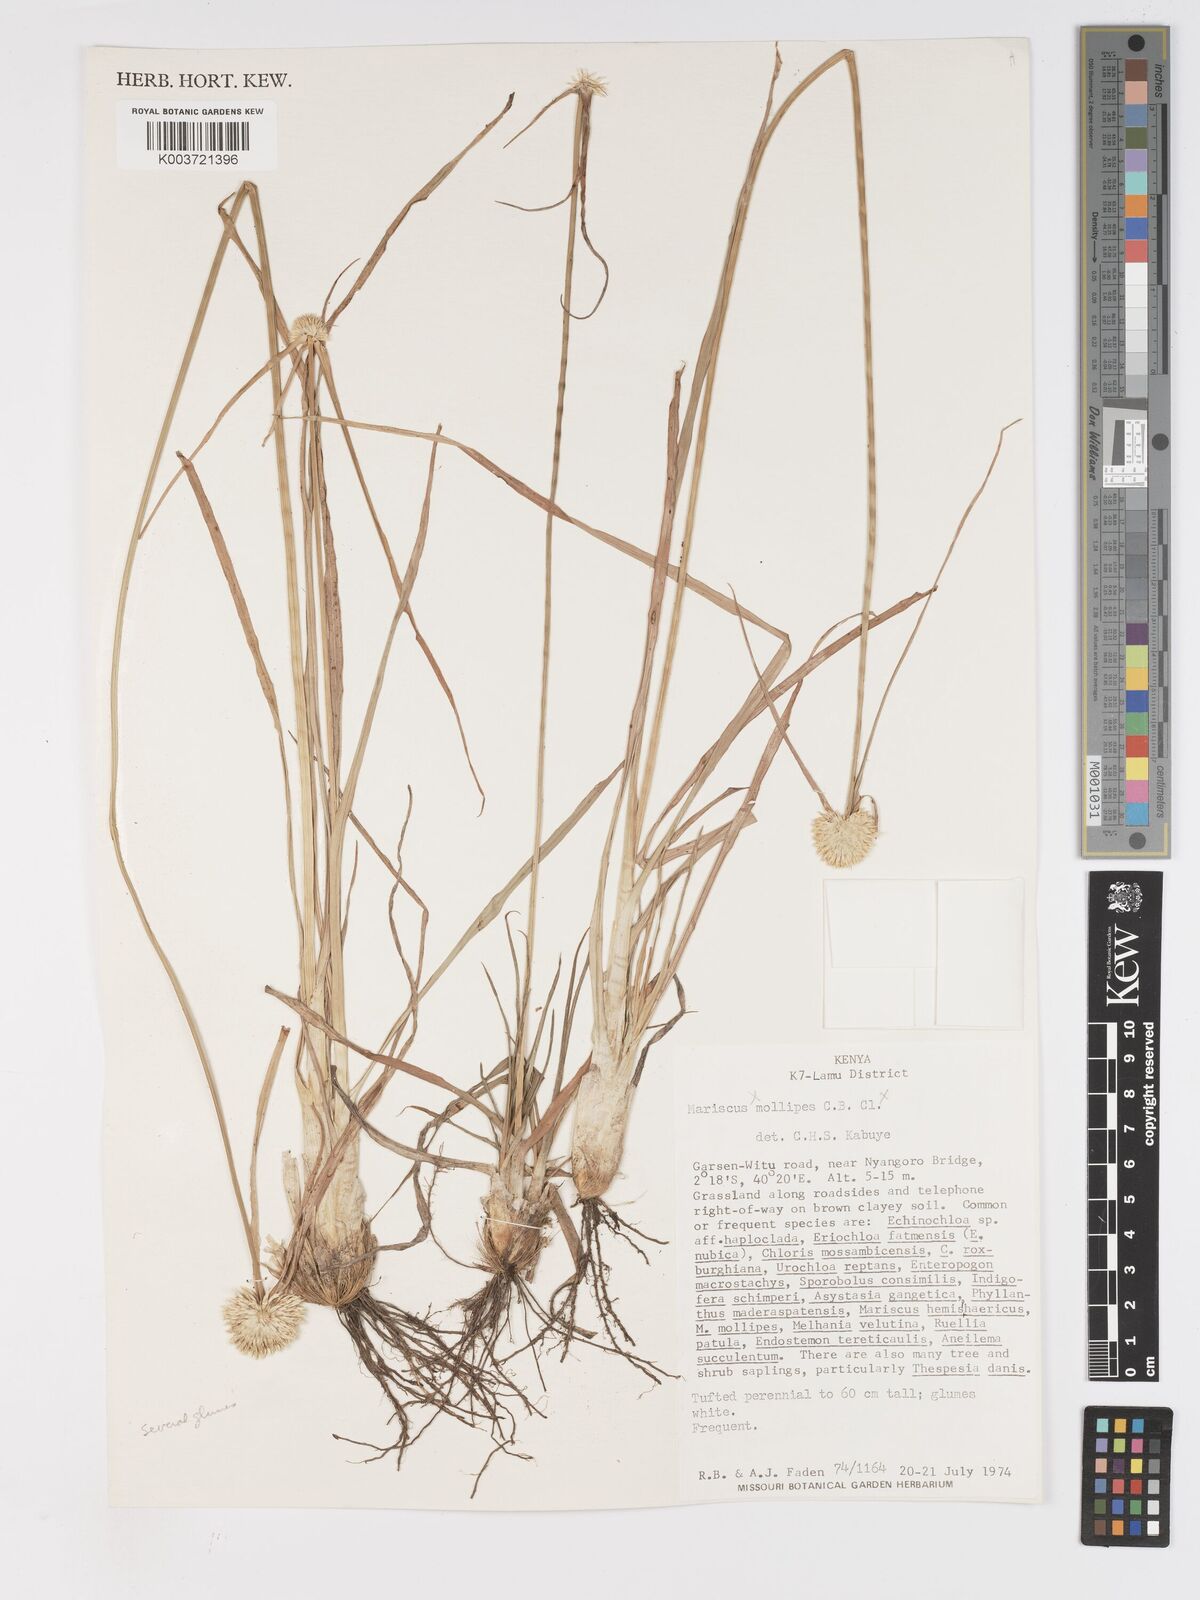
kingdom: Plantae
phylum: Tracheophyta
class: Liliopsida
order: Poales
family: Cyperaceae
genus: Cyperus
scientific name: Cyperus mollipes
